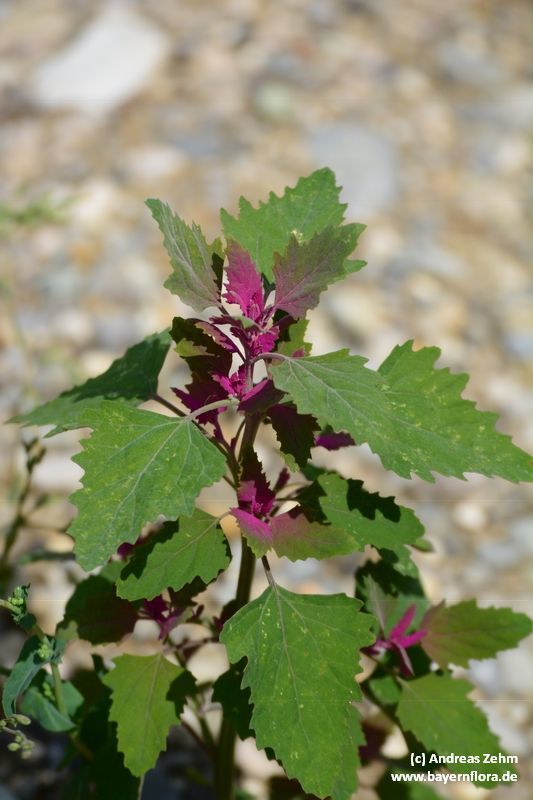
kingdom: Plantae
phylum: Tracheophyta
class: Magnoliopsida
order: Caryophyllales
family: Amaranthaceae
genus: Chenopodium
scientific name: Chenopodium giganteum
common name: Magentaspreen
